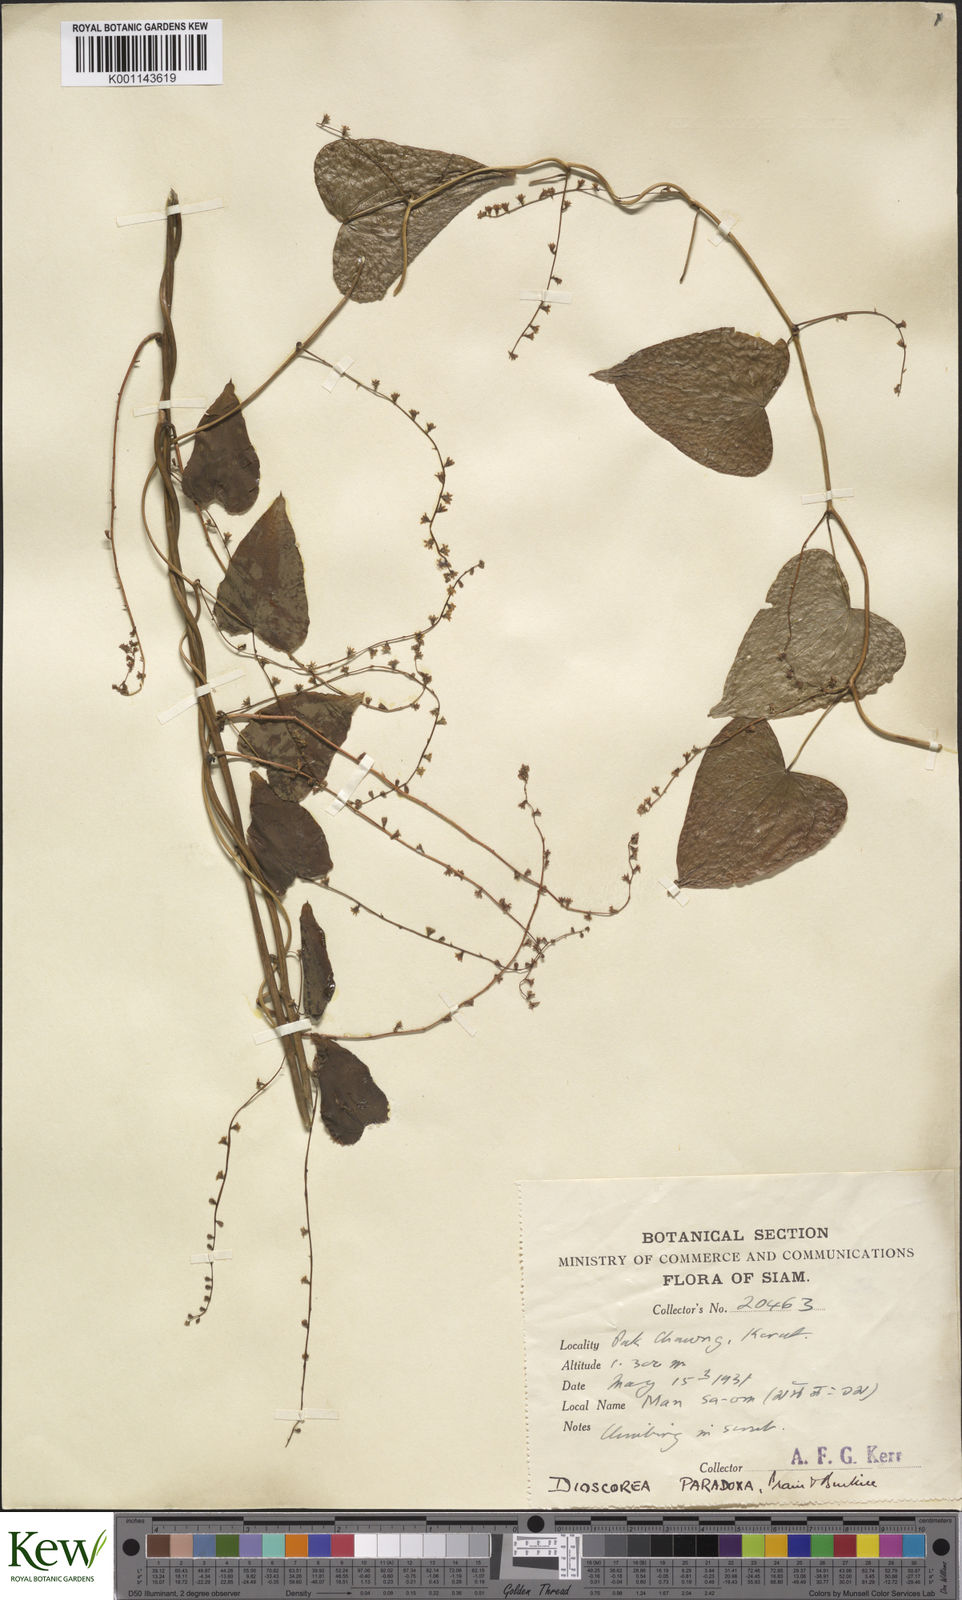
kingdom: Plantae
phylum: Tracheophyta
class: Liliopsida
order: Dioscoreales
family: Dioscoreaceae
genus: Dioscorea
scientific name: Dioscorea paradoxa
